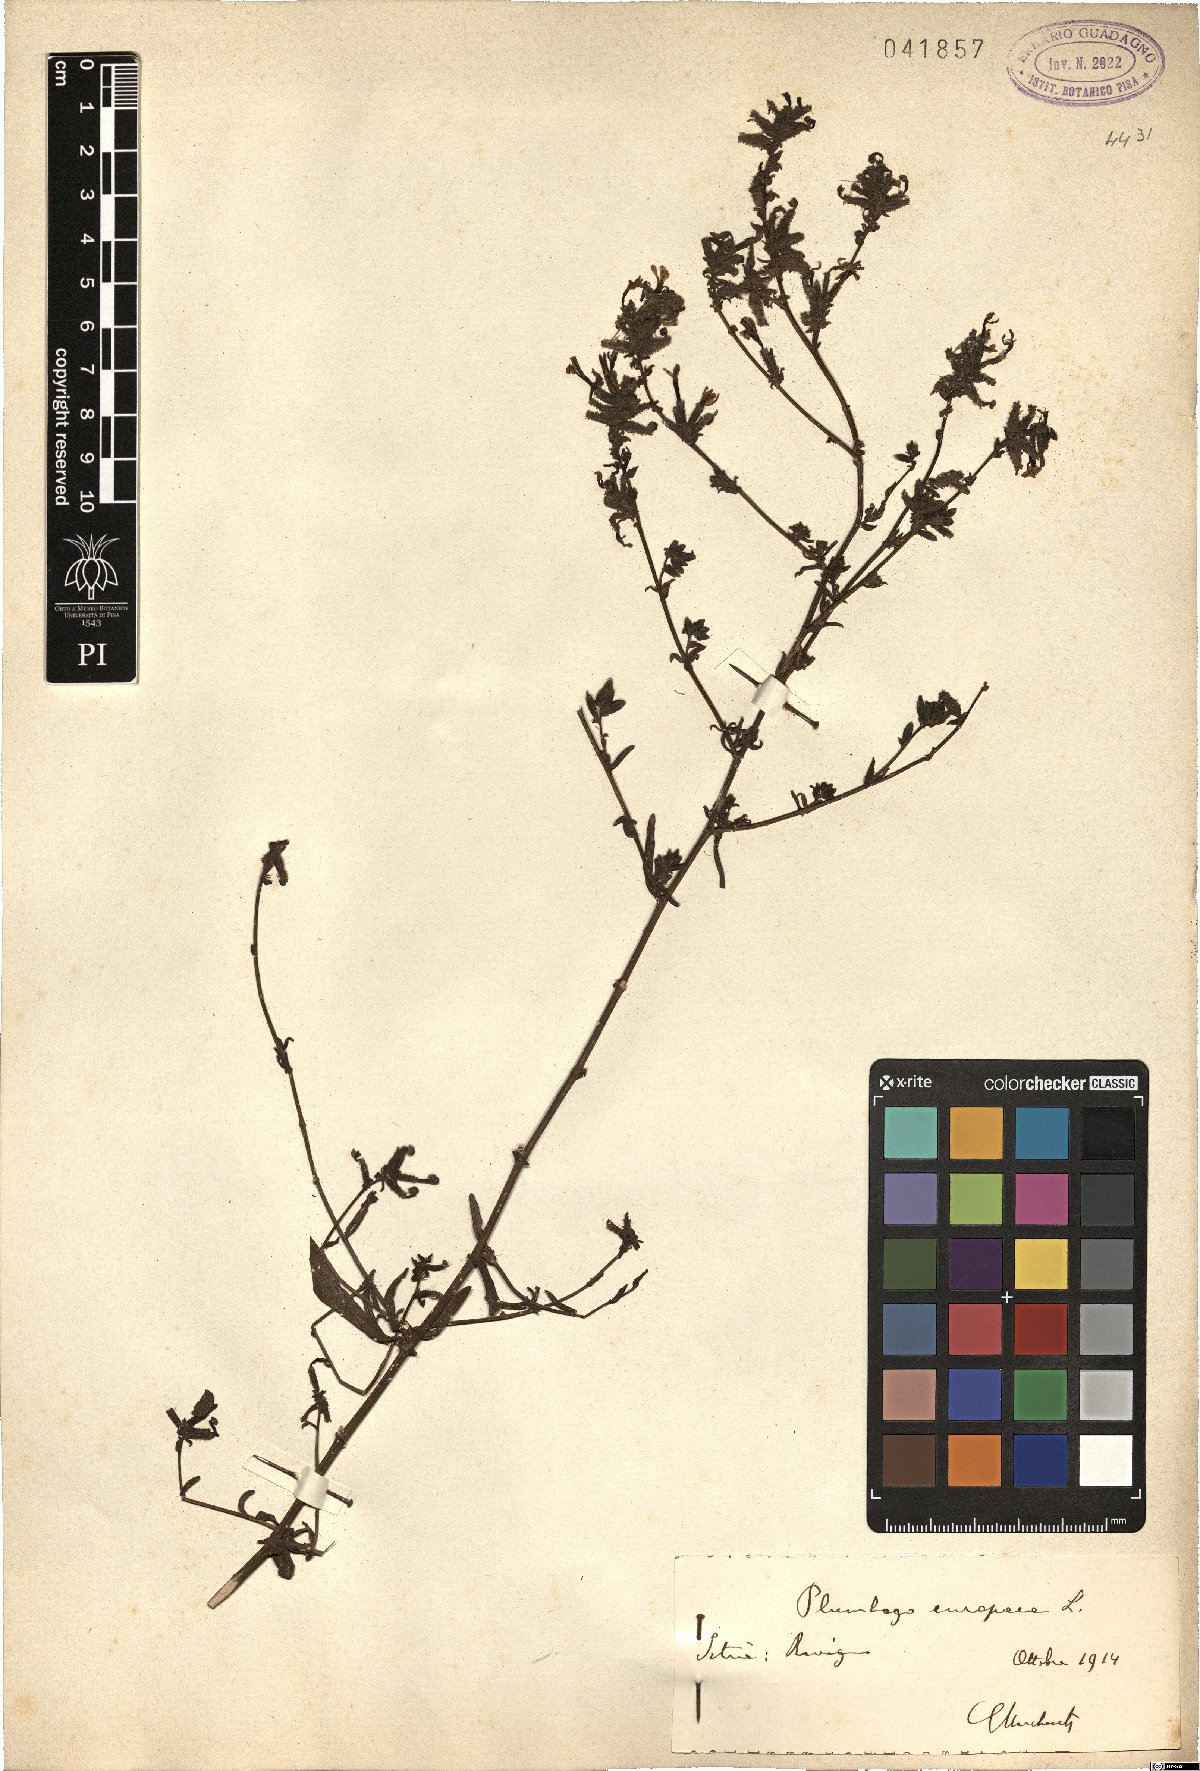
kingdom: Plantae
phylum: Tracheophyta
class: Magnoliopsida
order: Caryophyllales
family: Plumbaginaceae
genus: Plumbago
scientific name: Plumbago europaea
